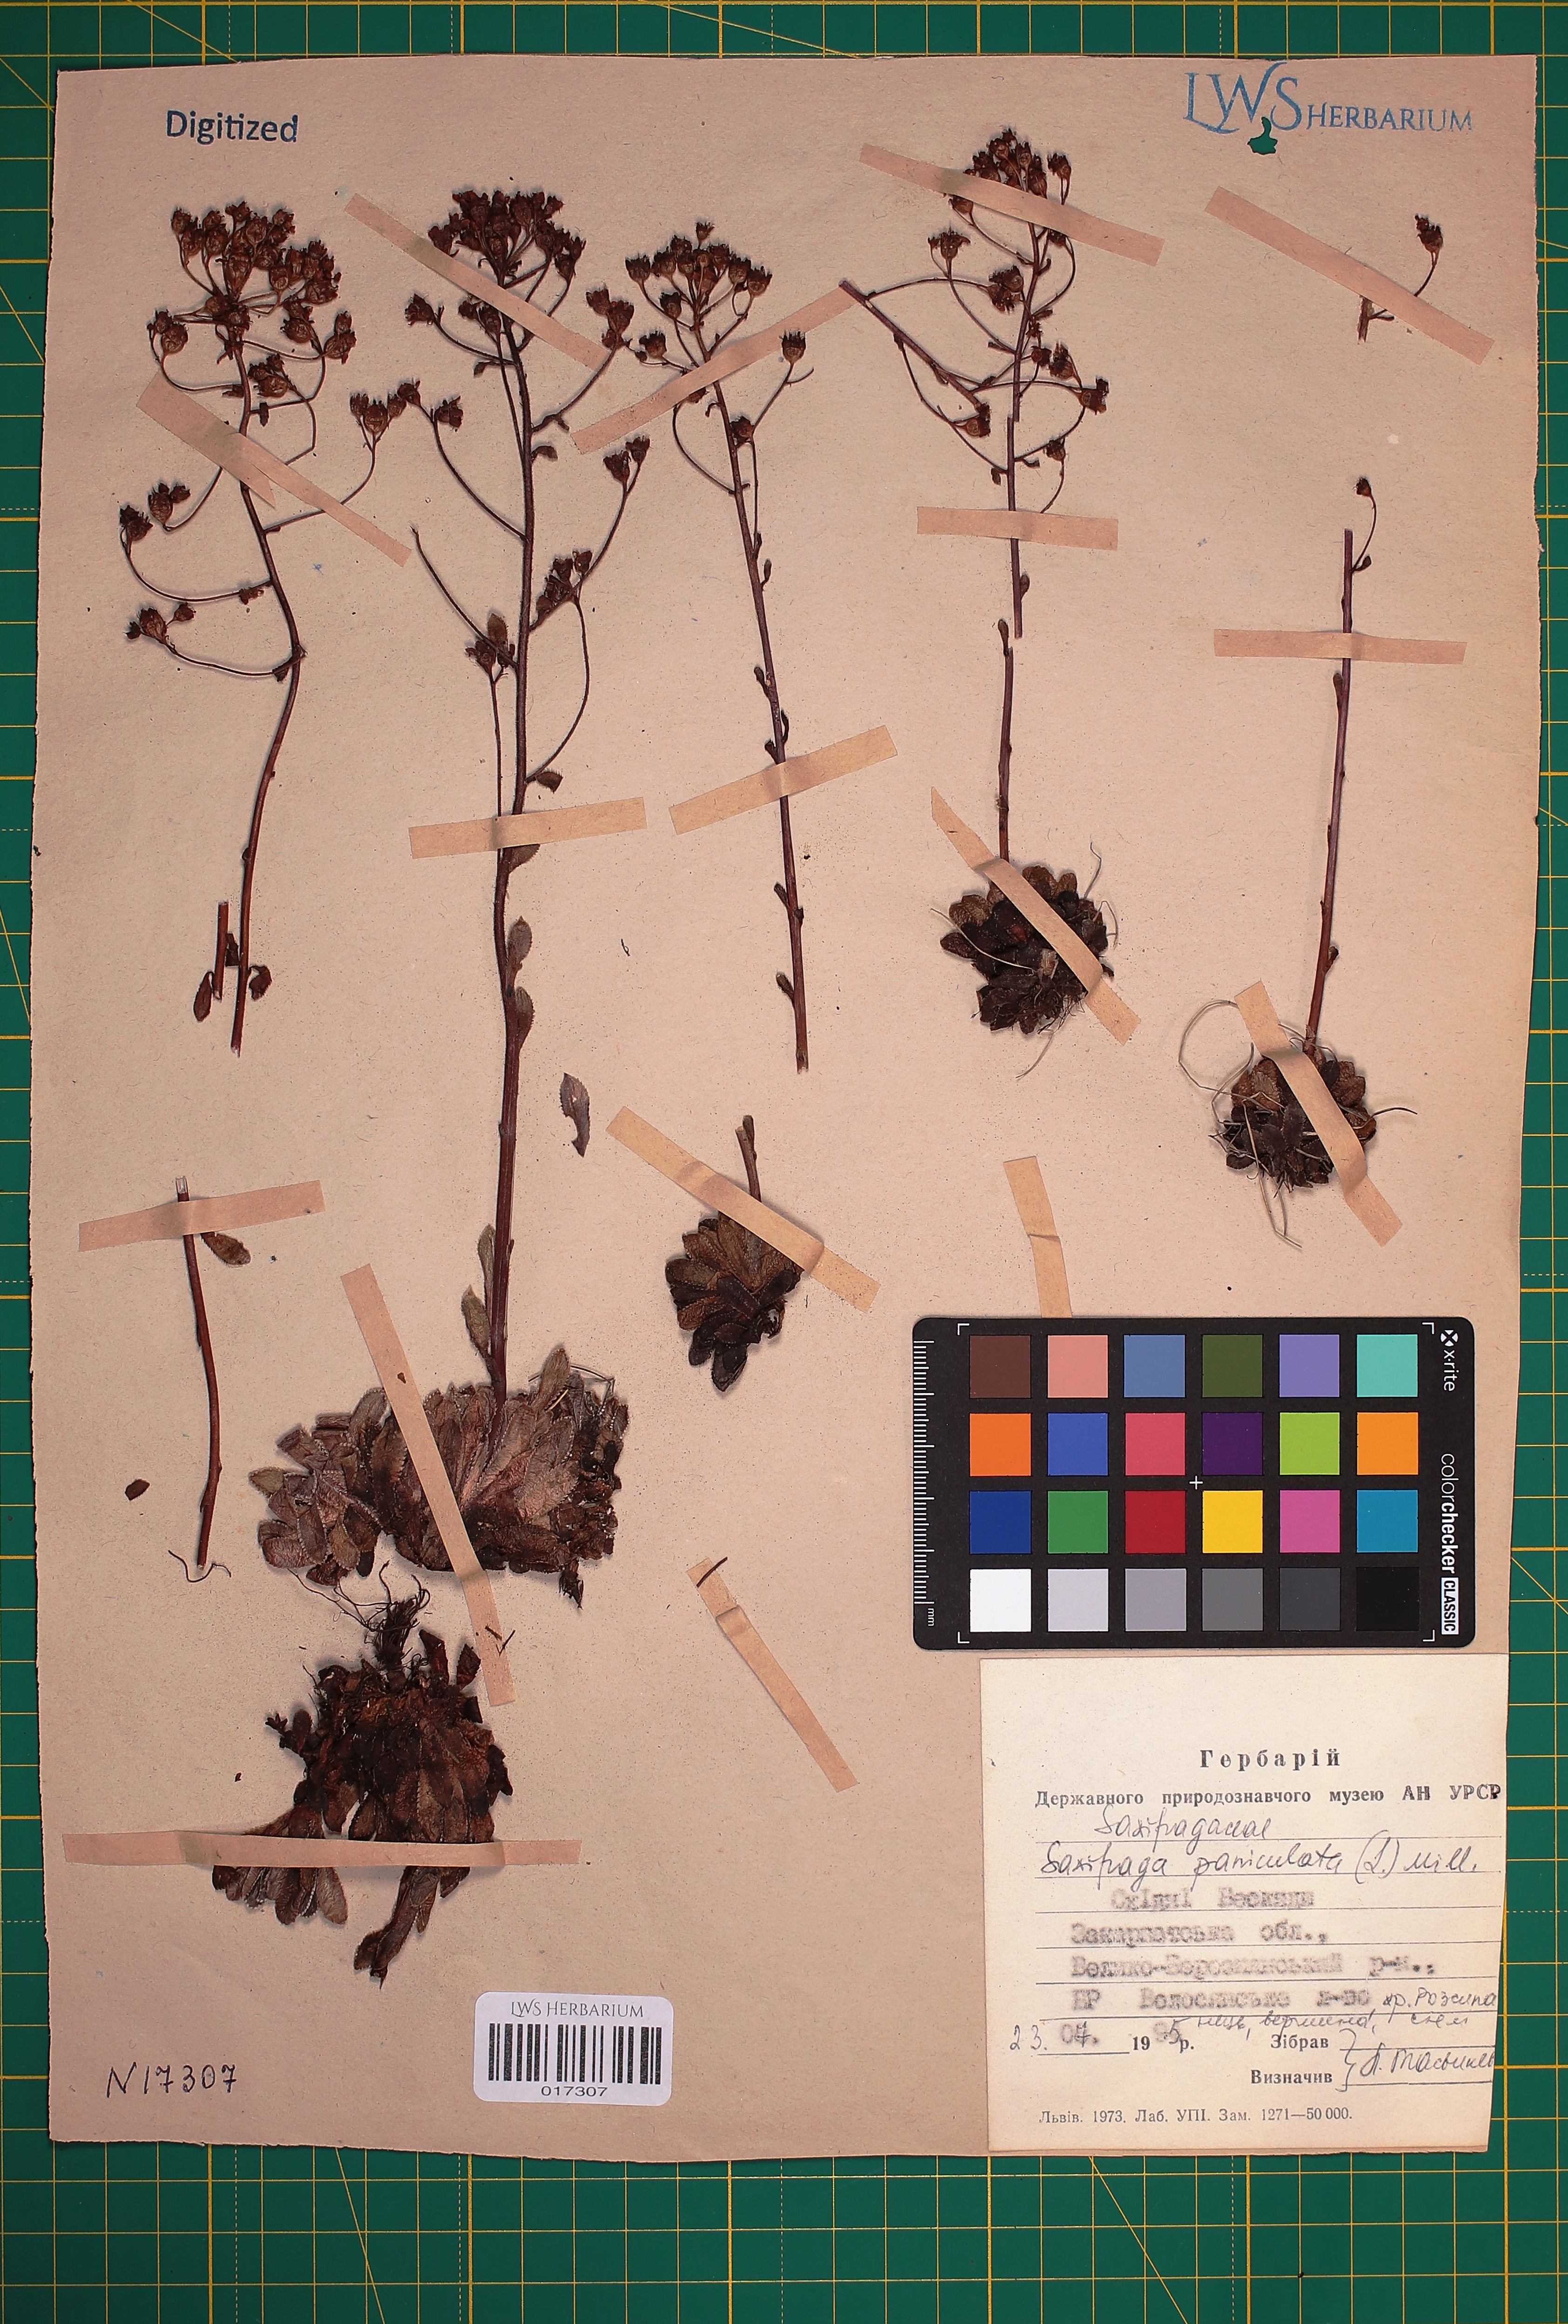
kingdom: Plantae
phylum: Tracheophyta
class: Magnoliopsida
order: Saxifragales
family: Saxifragaceae
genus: Saxifraga
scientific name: Saxifraga paniculata
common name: Livelong saxifrage
